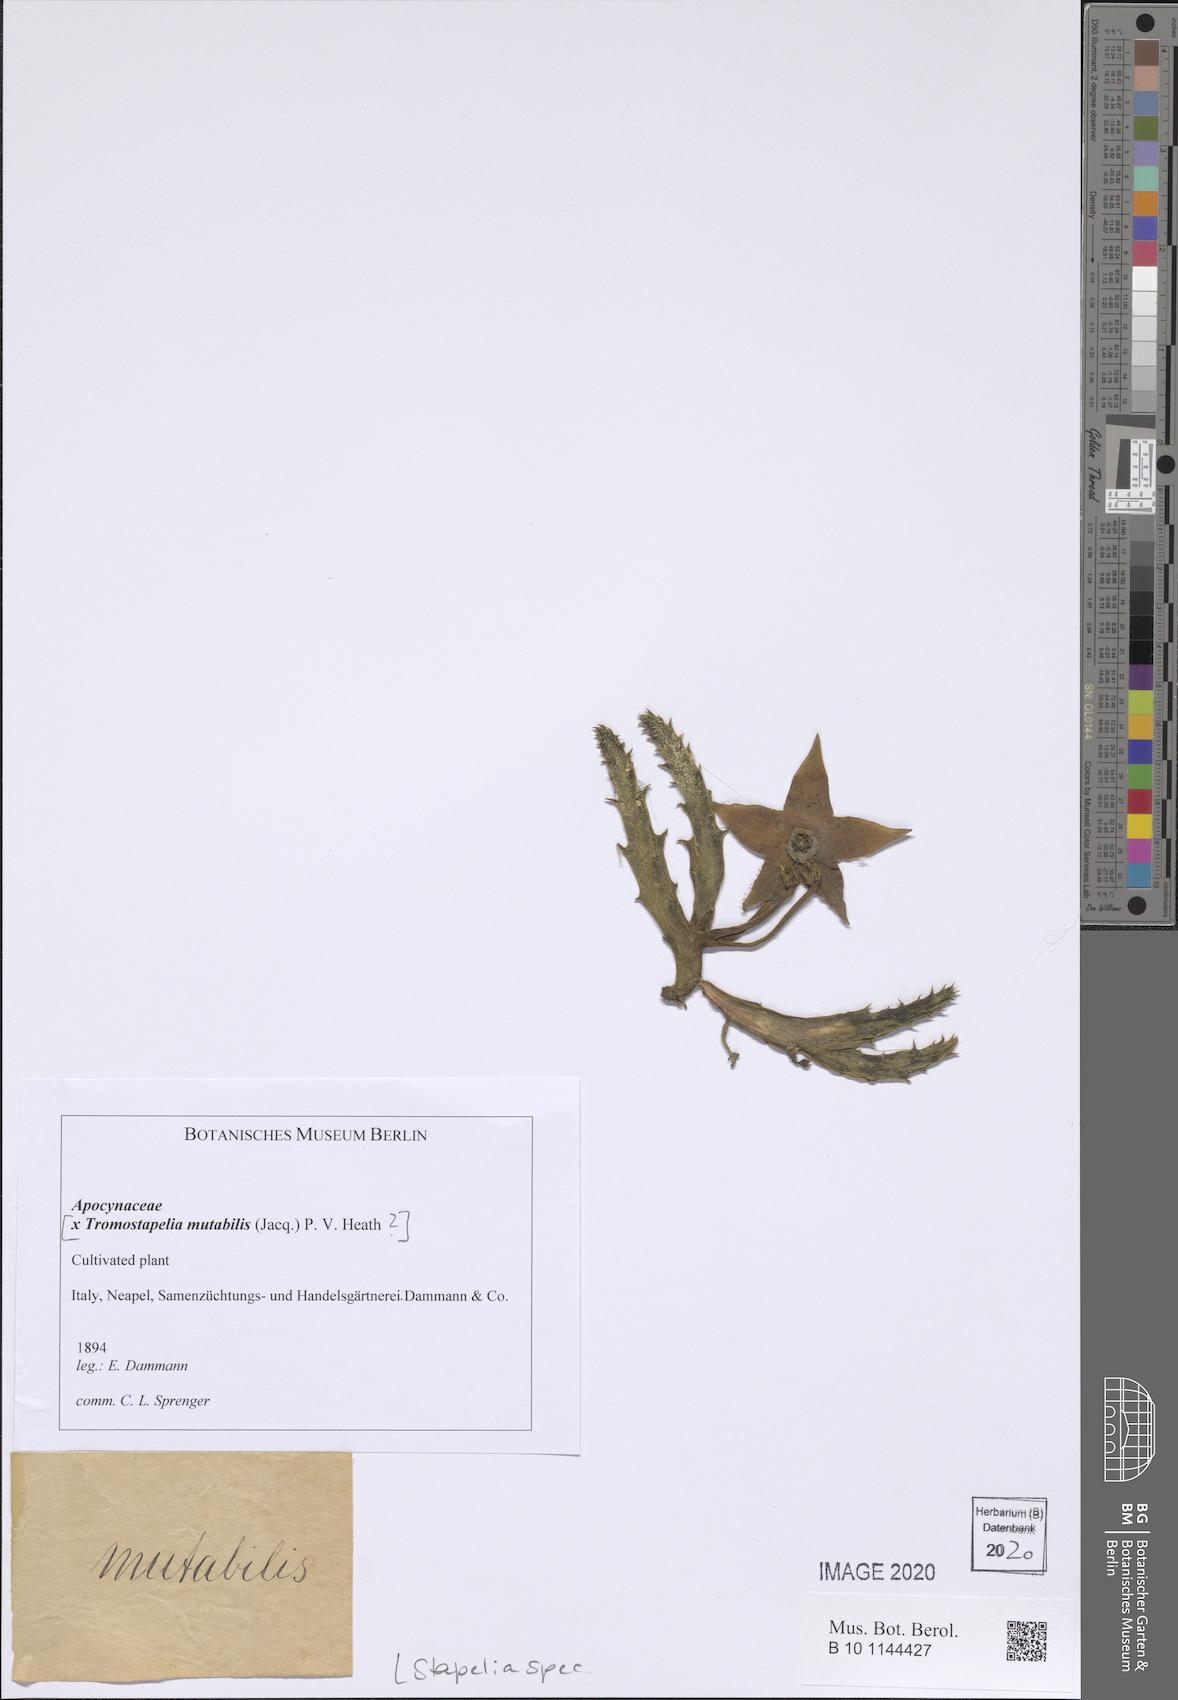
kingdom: Plantae
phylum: Tracheophyta
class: Magnoliopsida
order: Gentianales
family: Apocynaceae
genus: Stapelia
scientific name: Stapelia
